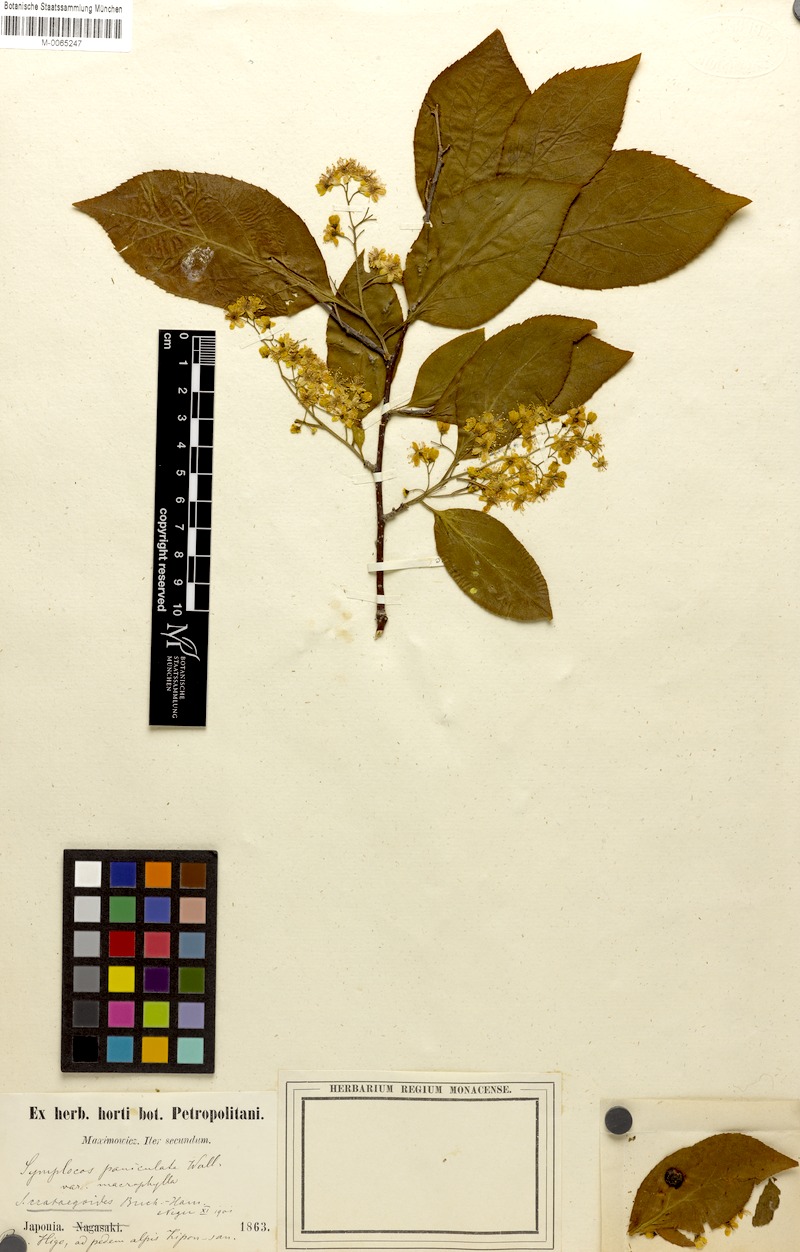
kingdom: Plantae
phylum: Tracheophyta
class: Magnoliopsida
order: Ericales
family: Symplocaceae
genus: Symplocos
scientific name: Symplocos paniculata
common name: Sapphire-berry
